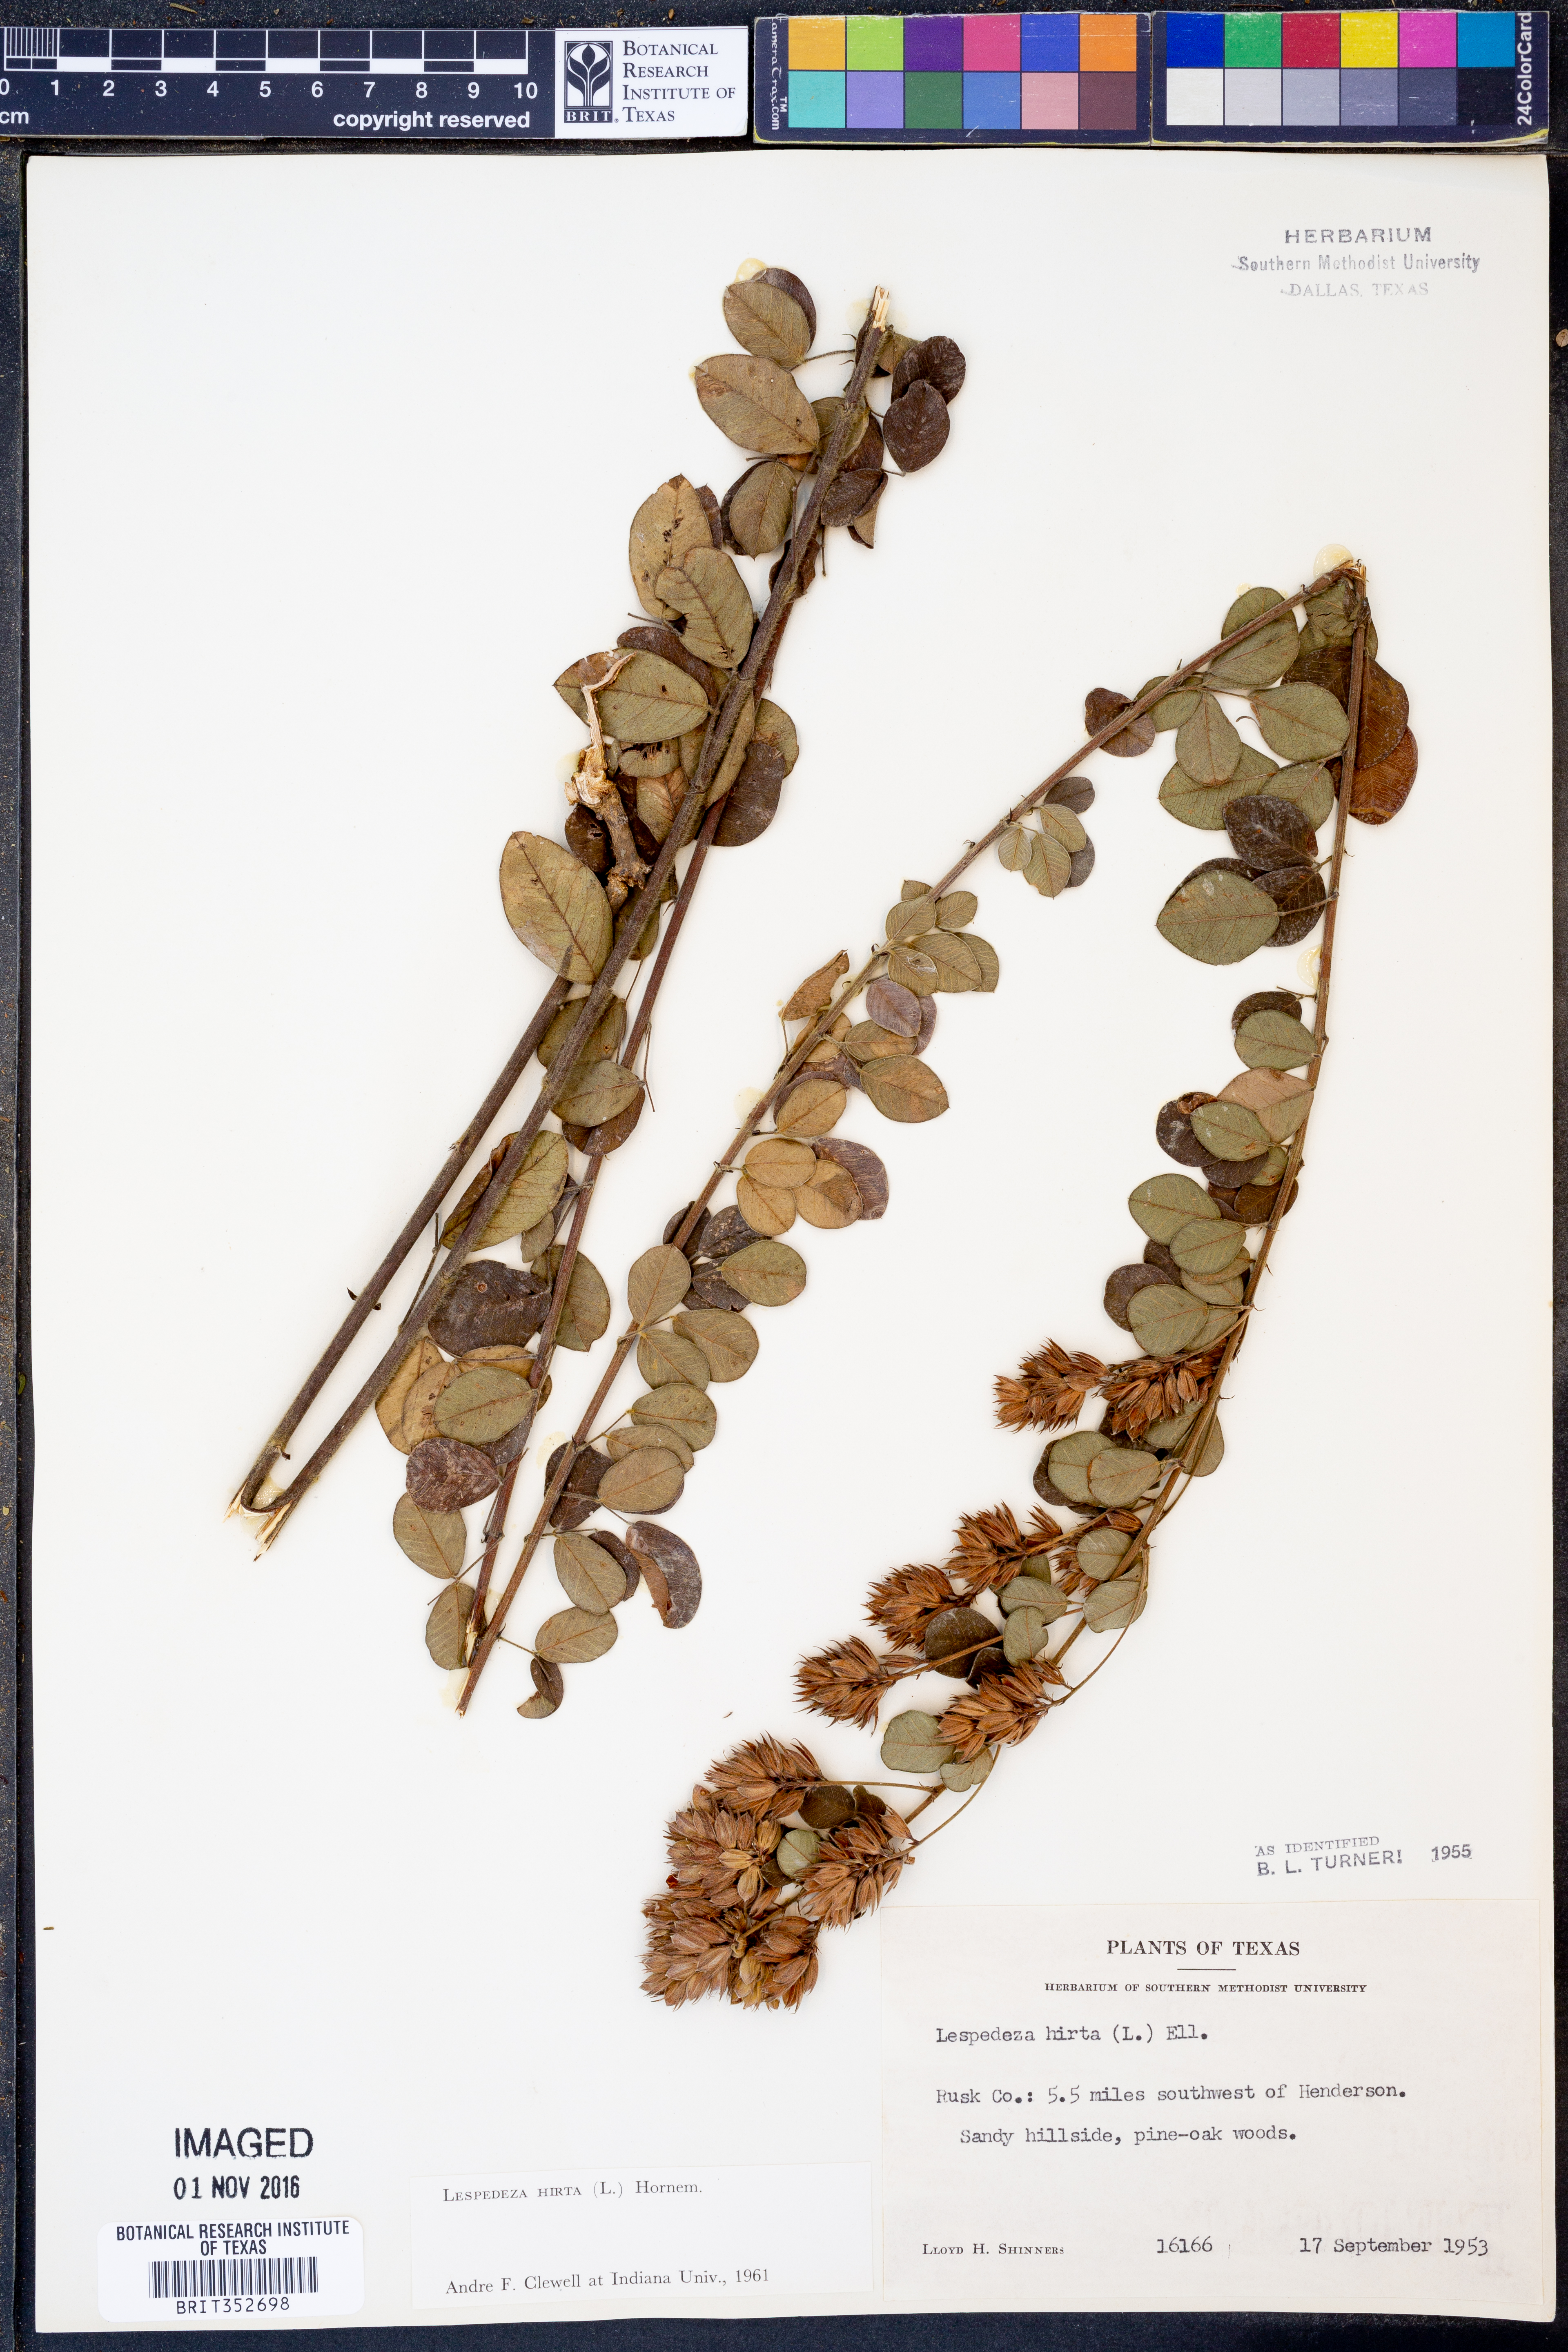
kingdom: Plantae
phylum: Tracheophyta
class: Magnoliopsida
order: Fabales
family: Fabaceae
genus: Lespedeza
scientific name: Lespedeza hirta
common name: Hairy lespedeza
